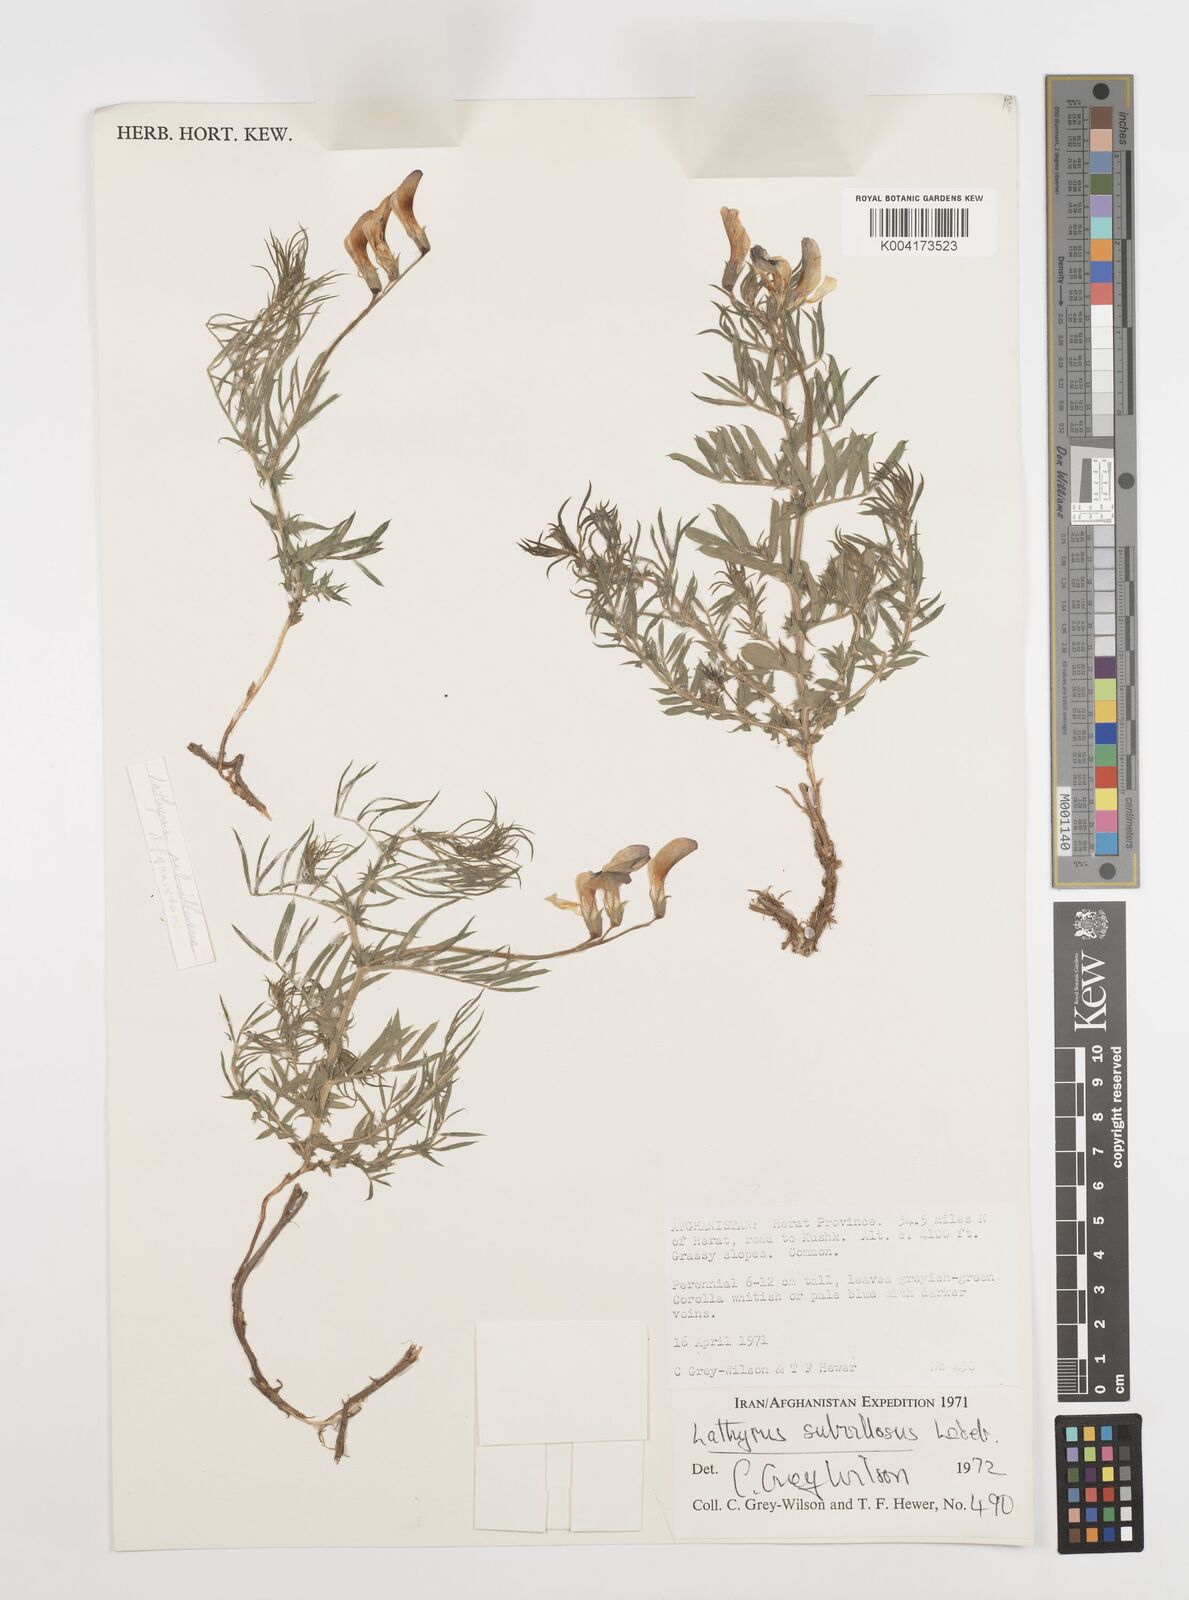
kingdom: Plantae
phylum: Tracheophyta
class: Magnoliopsida
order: Fabales
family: Fabaceae
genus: Vicia
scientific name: Vicia subvillosa
